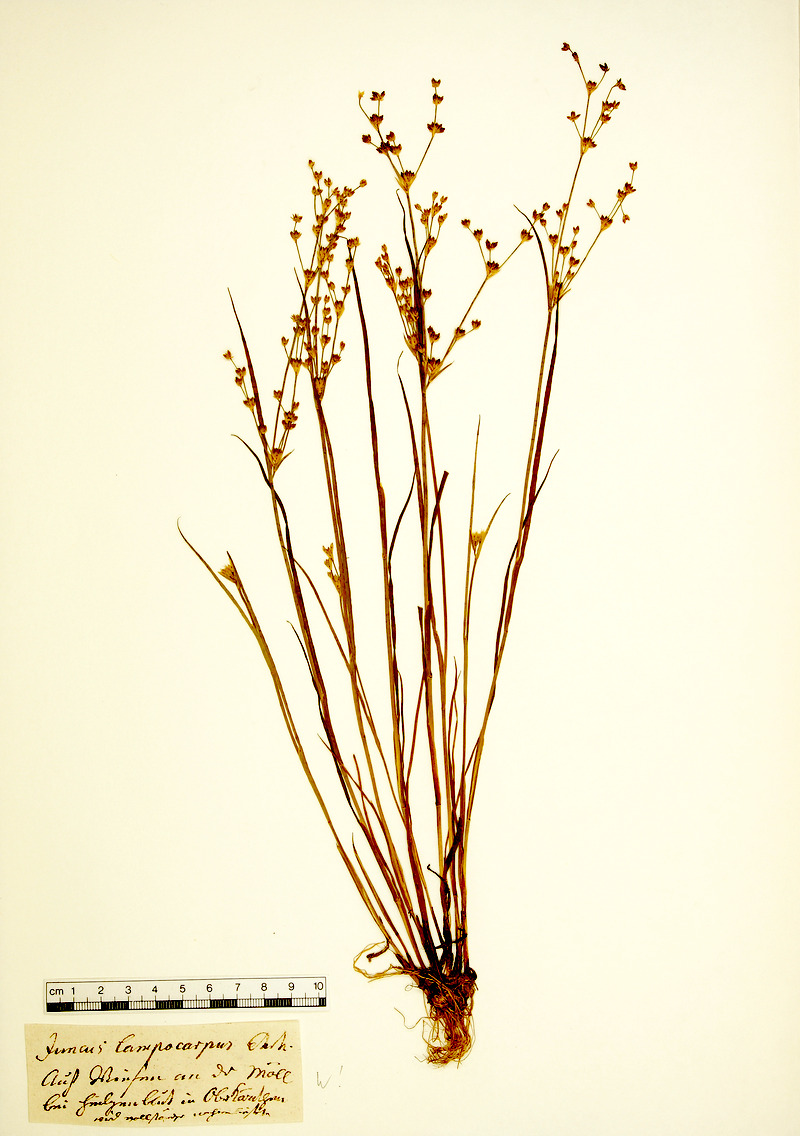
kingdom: Plantae
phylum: Tracheophyta
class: Liliopsida
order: Poales
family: Juncaceae
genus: Juncus
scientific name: Juncus articulatus
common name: Jointed rush
